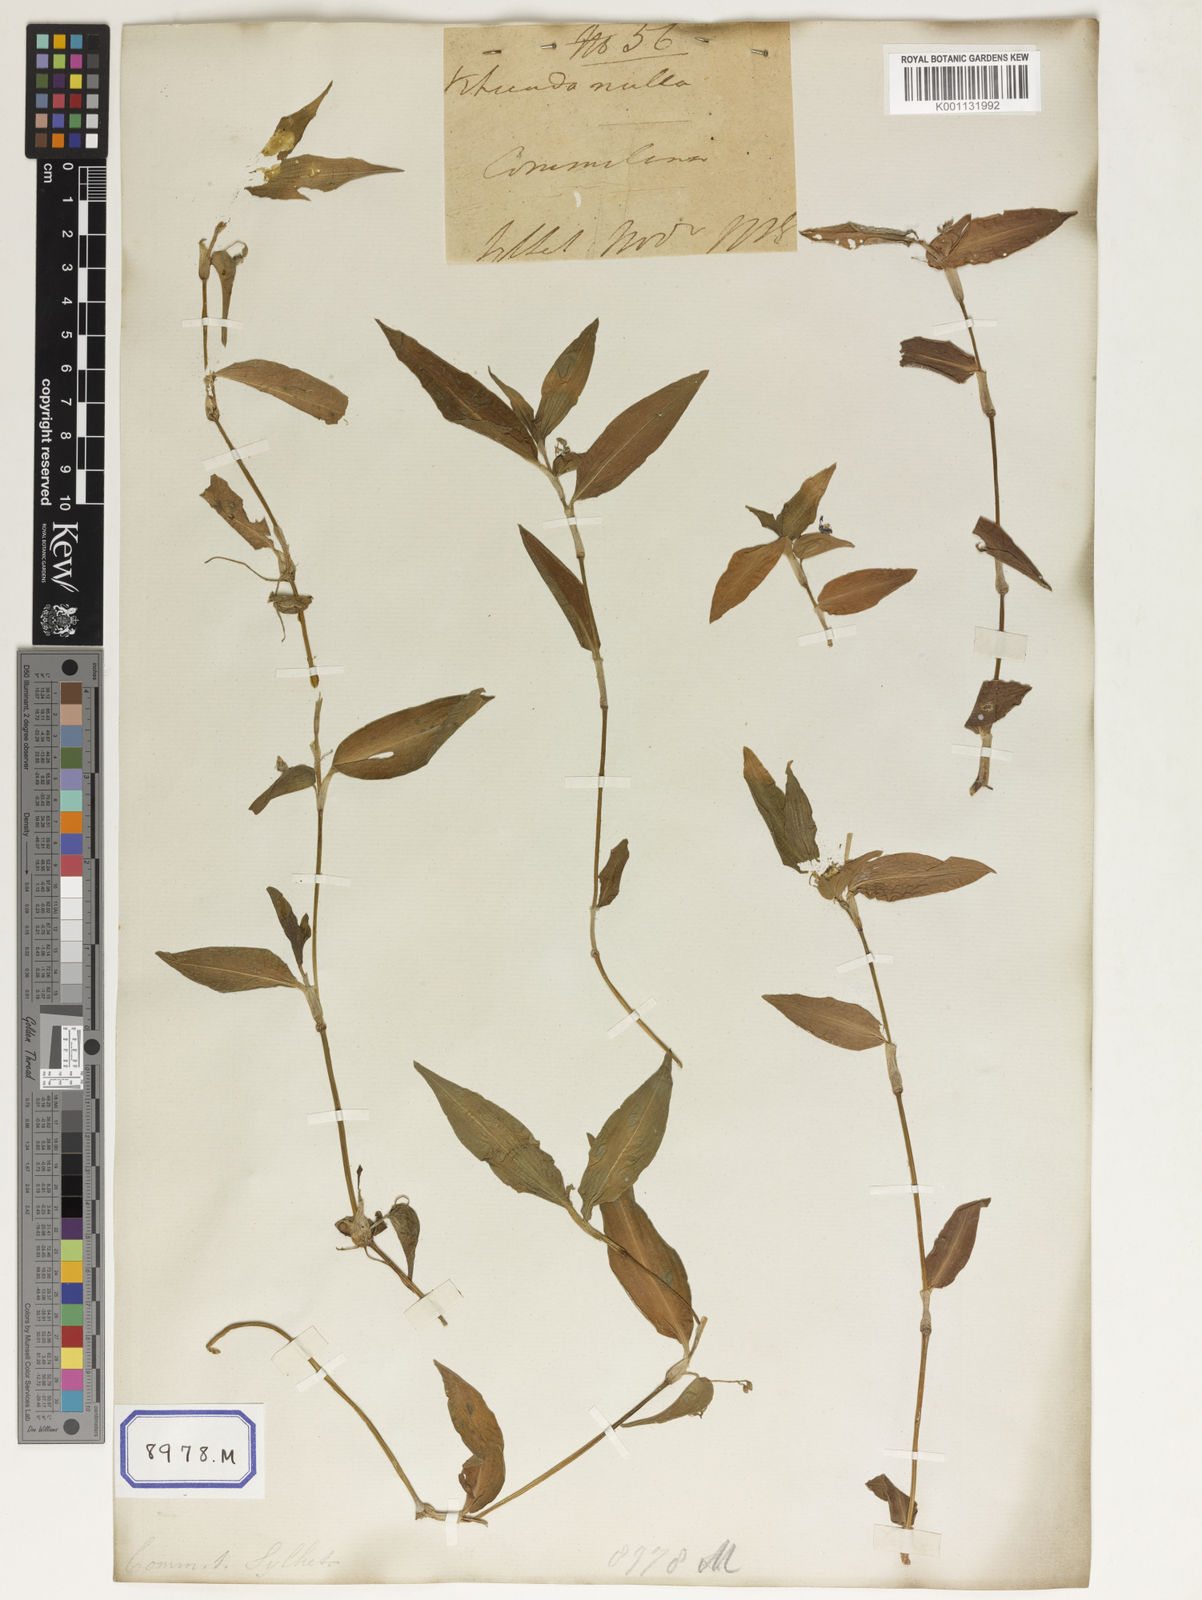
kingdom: Plantae
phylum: Tracheophyta
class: Liliopsida
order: Commelinales
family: Commelinaceae
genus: Commelina
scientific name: Commelina communis
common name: Asiatic dayflower
